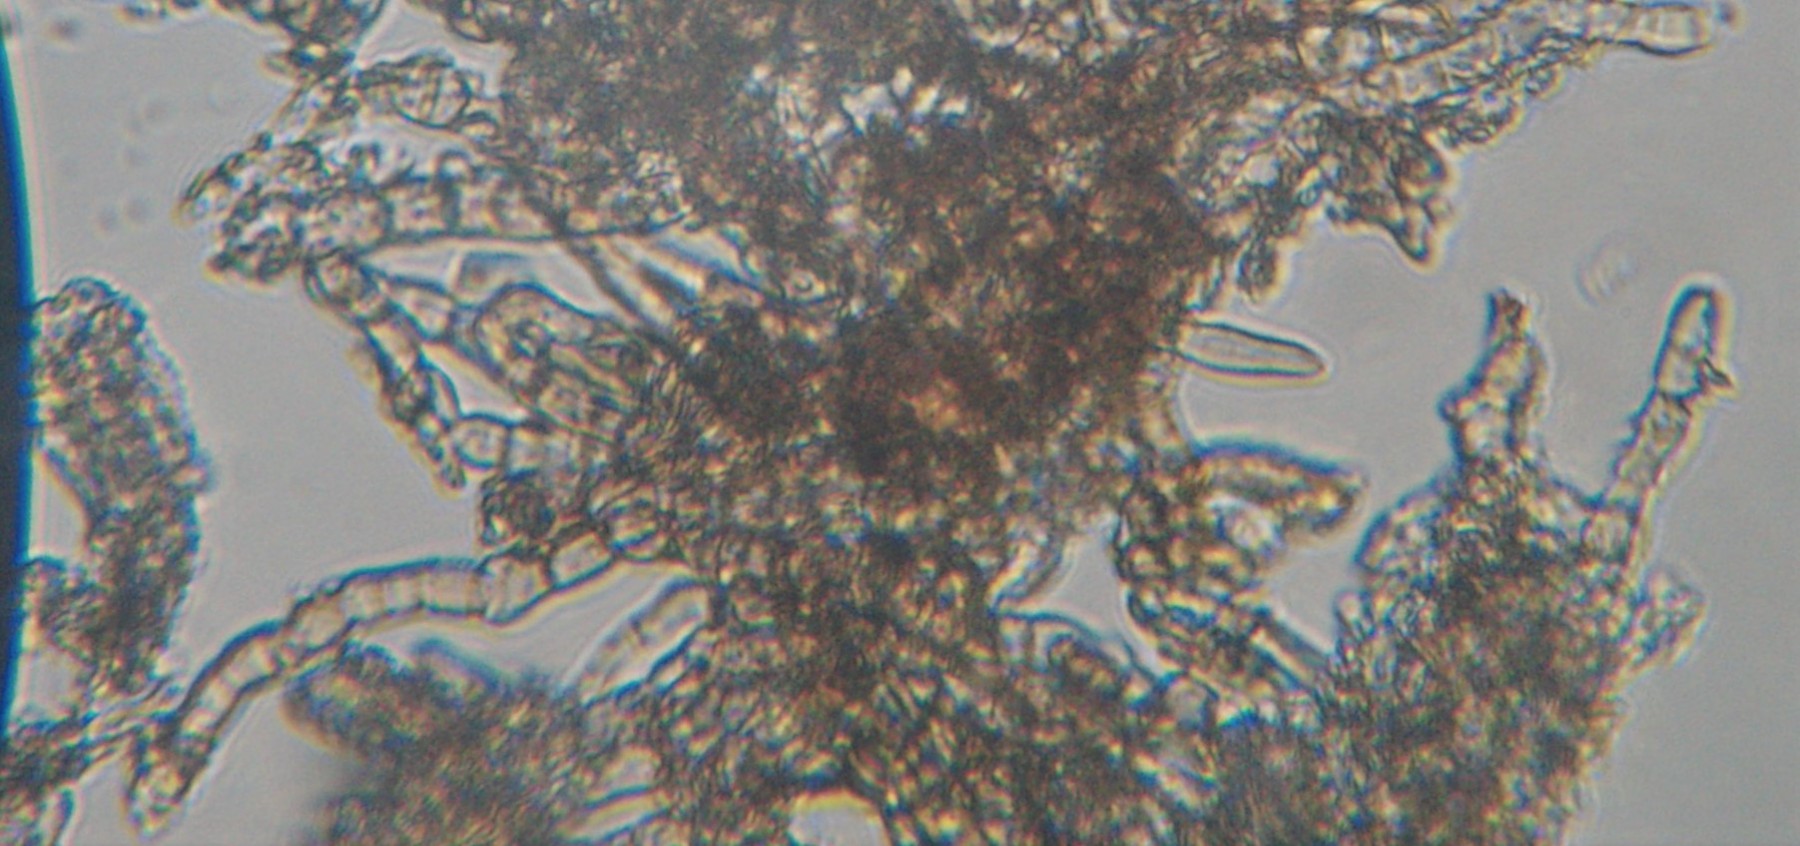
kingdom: Fungi
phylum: Ascomycota
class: Leotiomycetes
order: Helotiales
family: Erysiphaceae
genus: Erysiphe
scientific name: Erysiphe euonymi
